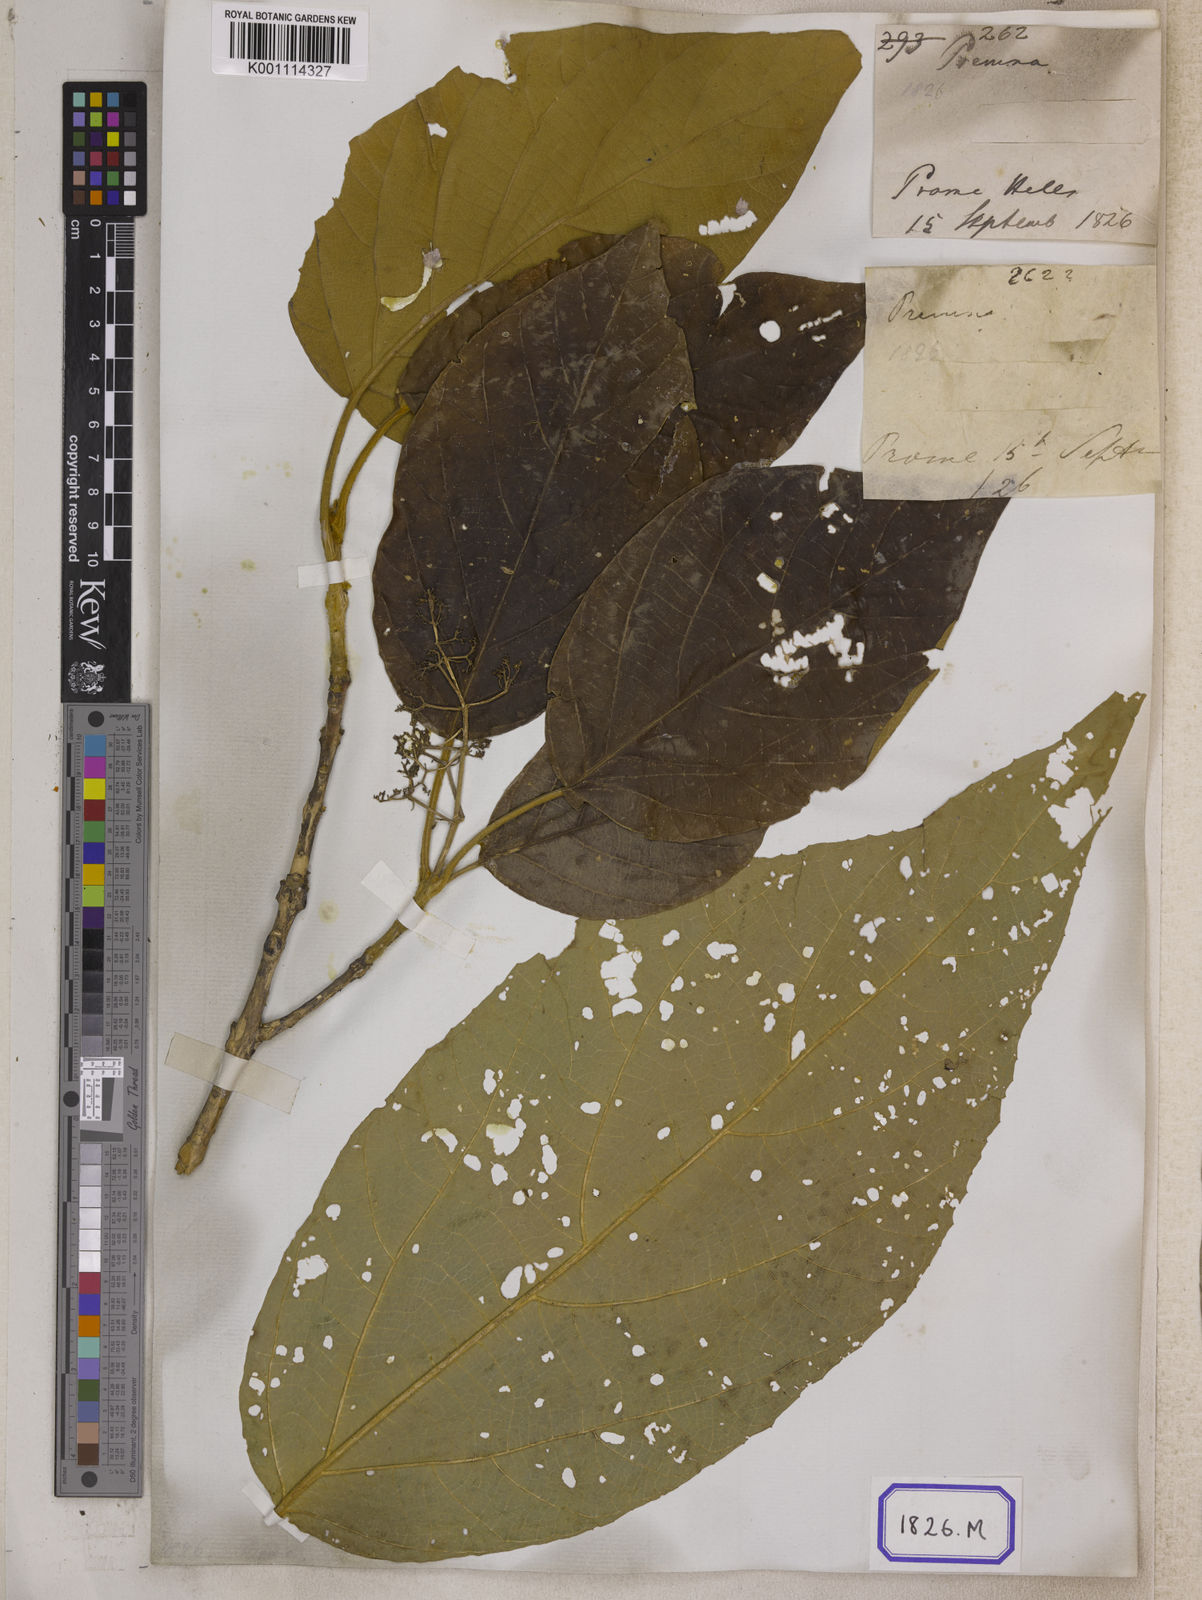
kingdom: Plantae
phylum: Tracheophyta
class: Magnoliopsida
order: Lamiales
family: Lamiaceae
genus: Callicarpa
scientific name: Callicarpa arborea
